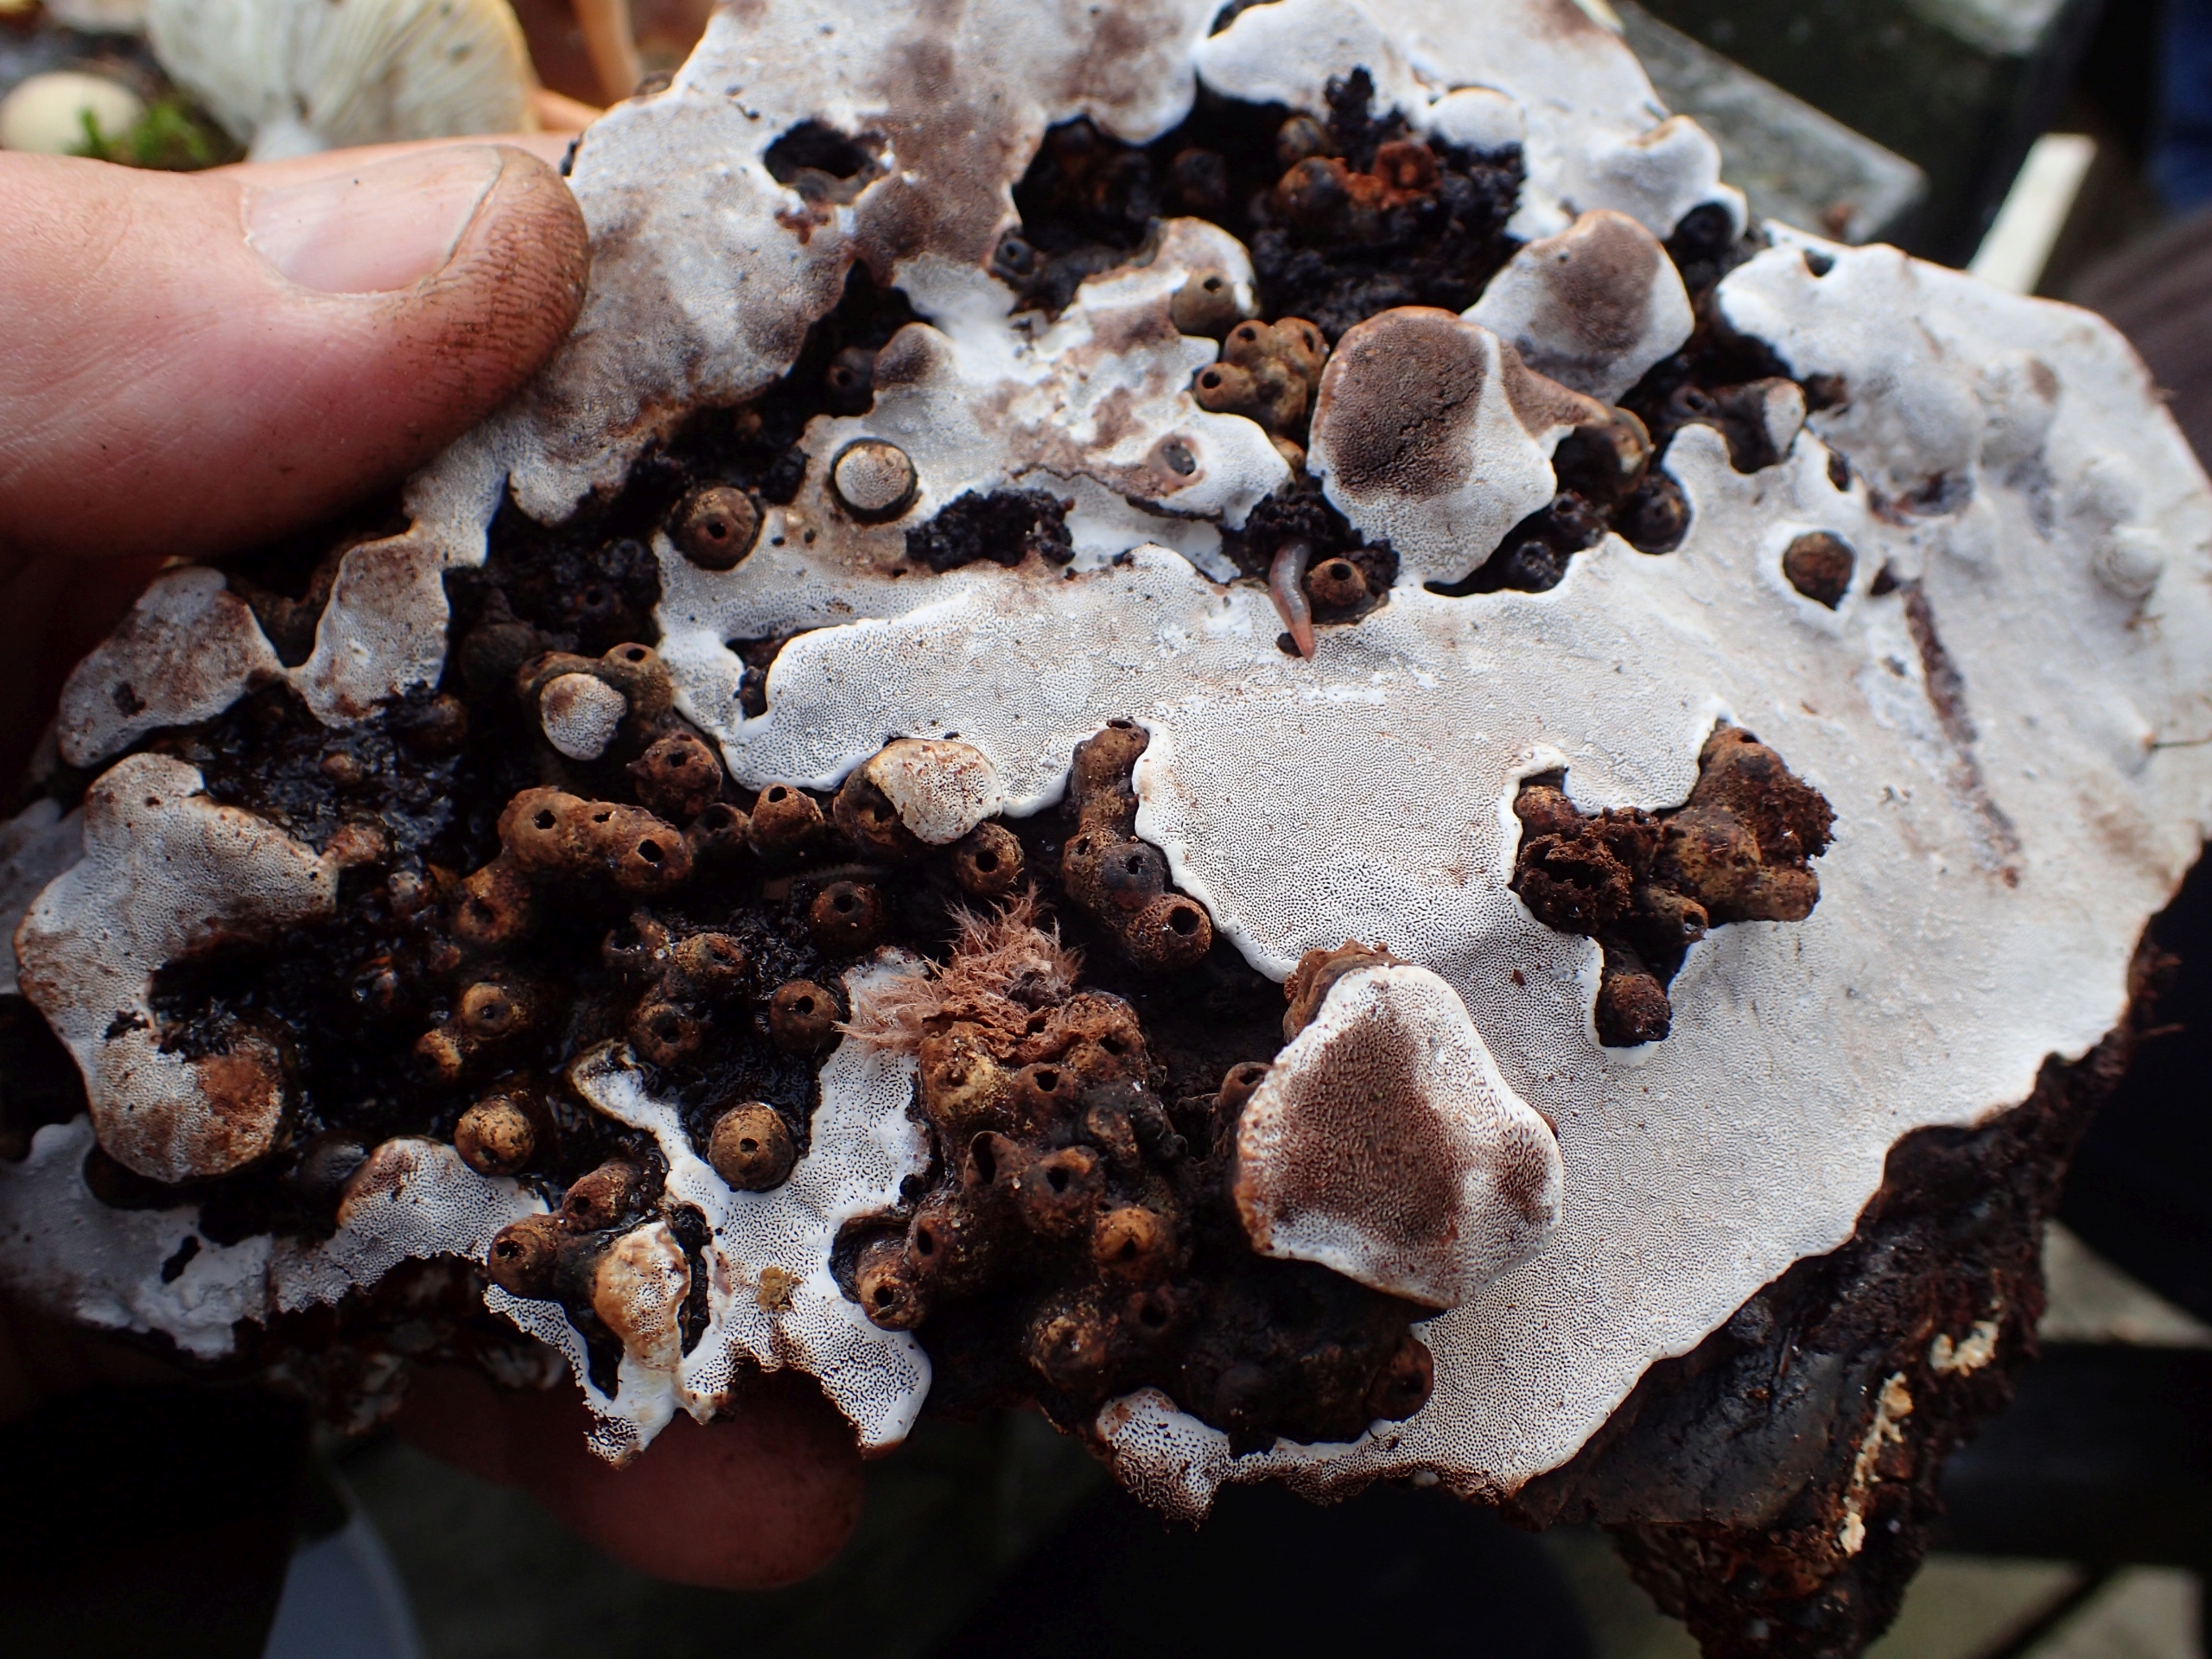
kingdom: Animalia
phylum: Arthropoda
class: Insecta
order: Diptera
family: Platypezidae
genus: Agathomyia
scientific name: Agathomyia wankowiczii
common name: Galle-platfodsflue
